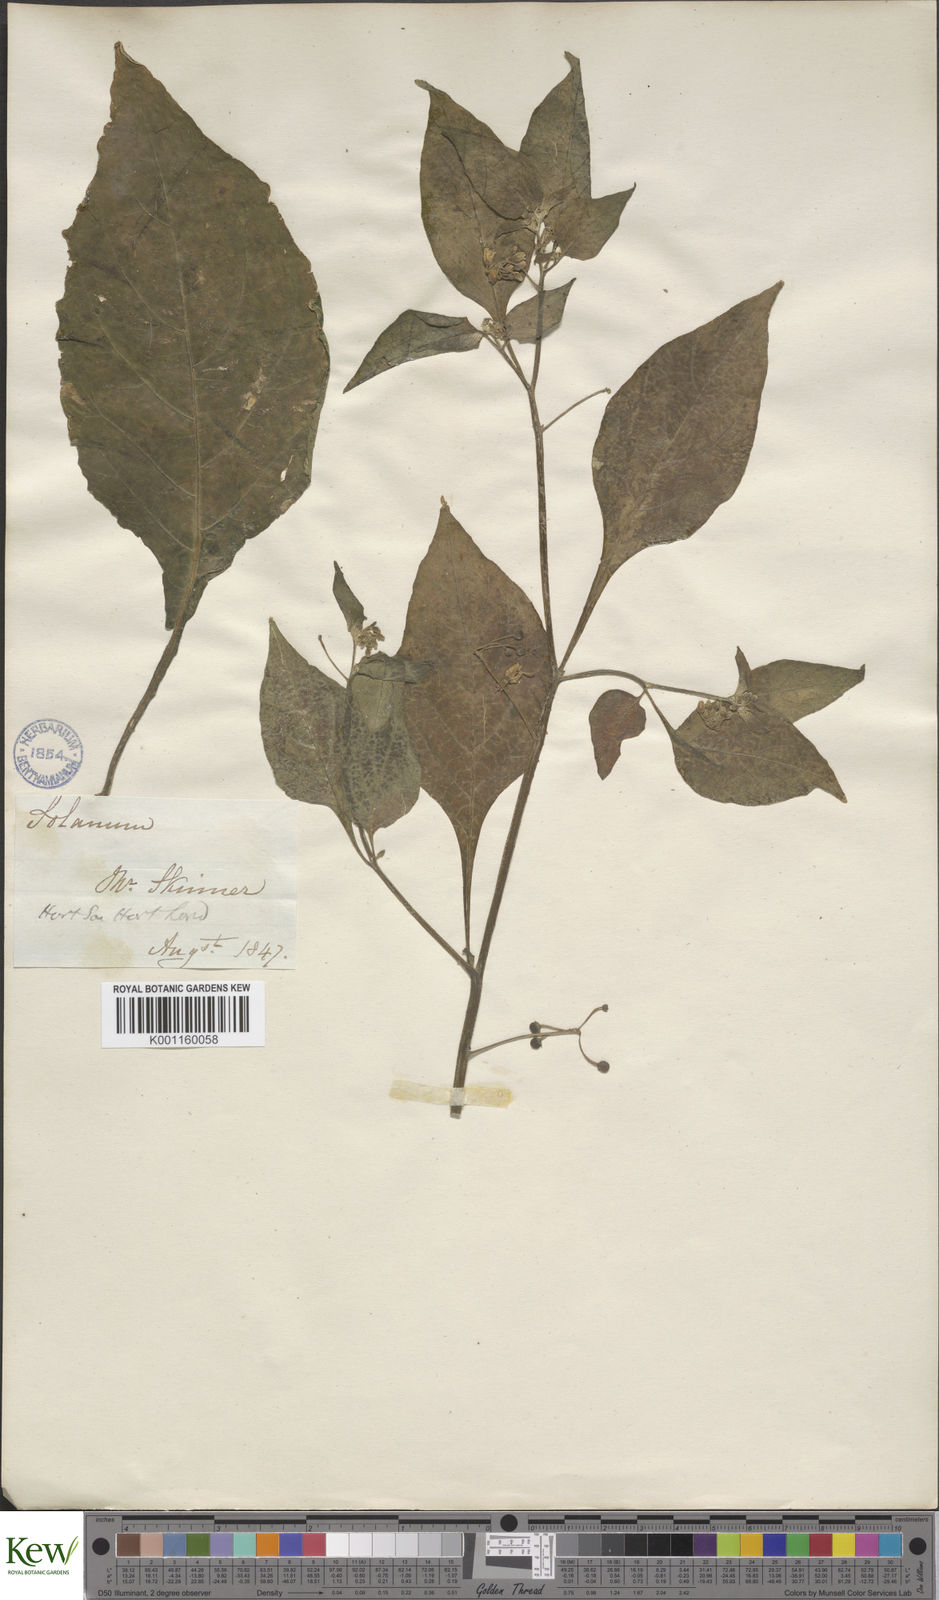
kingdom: Plantae
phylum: Tracheophyta
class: Magnoliopsida
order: Solanales
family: Solanaceae
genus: Solanum
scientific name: Solanum chenopodioides
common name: Tall nightshade
